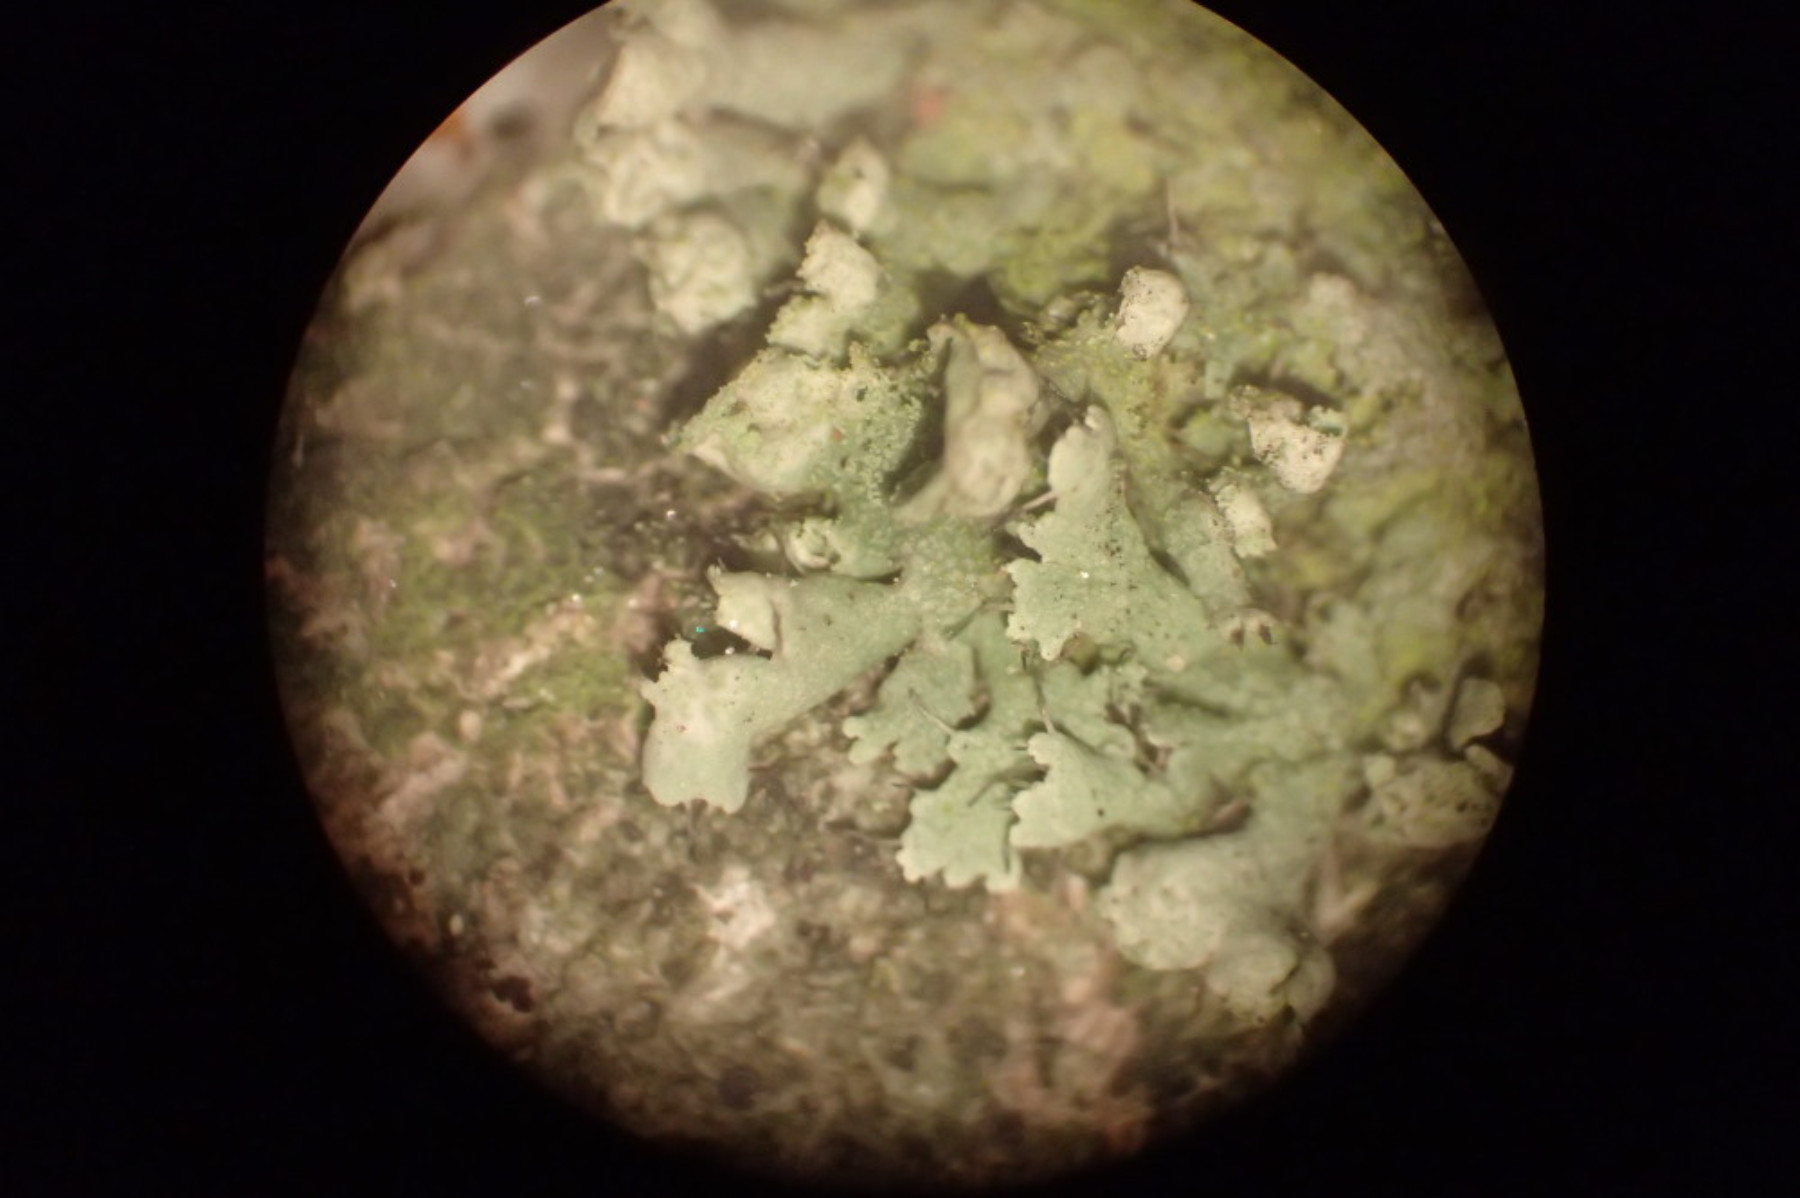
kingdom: Fungi
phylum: Ascomycota
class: Lecanoromycetes
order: Caliciales
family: Physciaceae
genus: Physcia
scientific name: Physcia adscendens
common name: hætte-rosetlav
